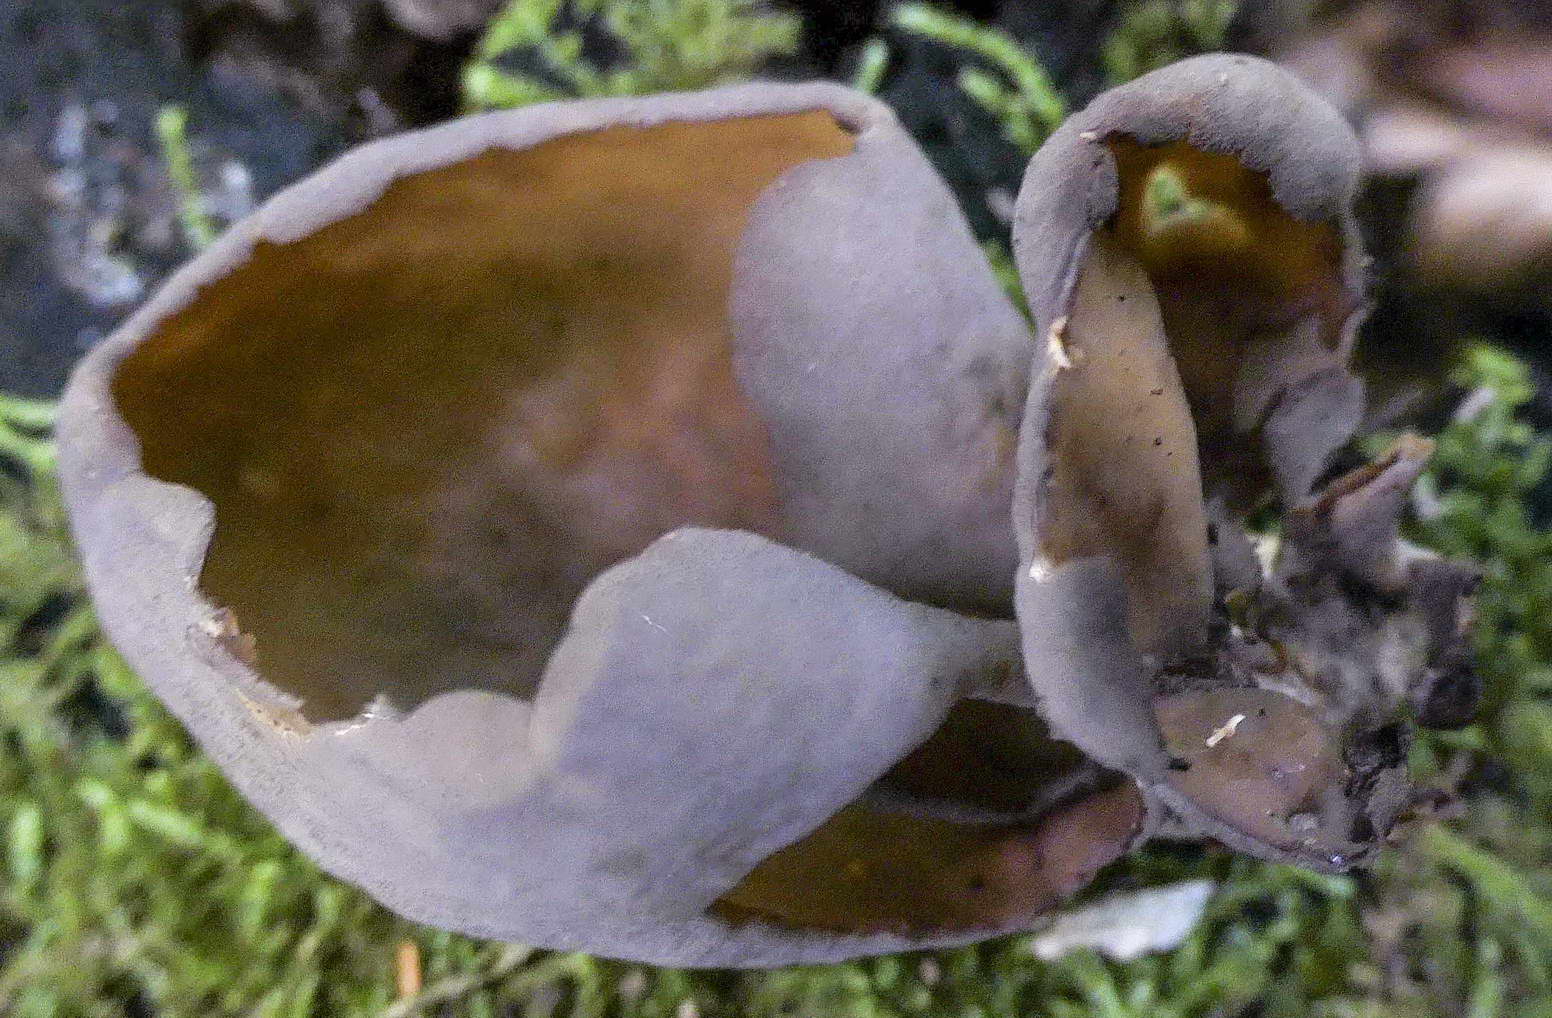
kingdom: Fungi
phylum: Ascomycota
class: Pezizomycetes
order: Pezizales
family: Otideaceae
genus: Otidea
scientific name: Otidea
